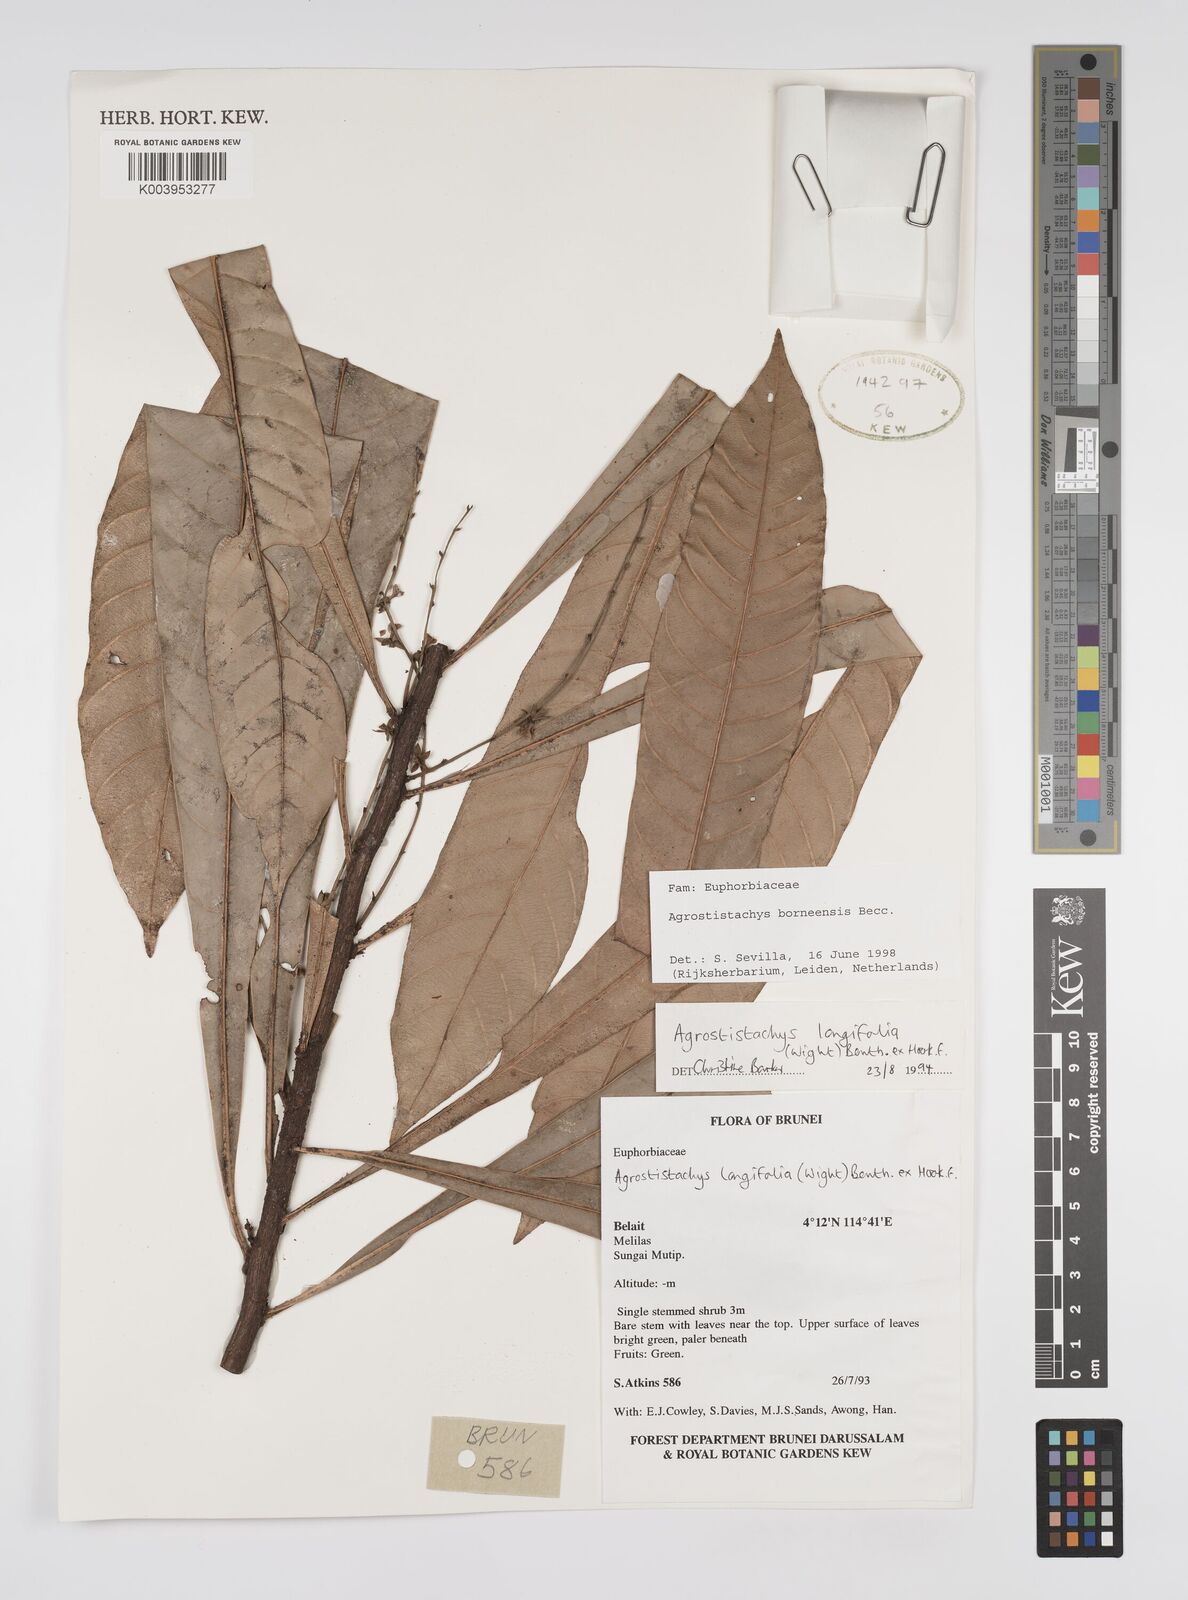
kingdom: Plantae
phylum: Tracheophyta
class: Magnoliopsida
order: Malpighiales
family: Euphorbiaceae
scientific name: Euphorbiaceae
